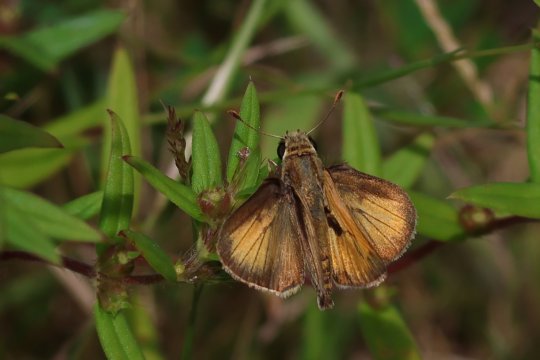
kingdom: Animalia
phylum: Arthropoda
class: Insecta
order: Lepidoptera
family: Hesperiidae
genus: Polites
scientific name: Polites vibex
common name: Whirlabout
